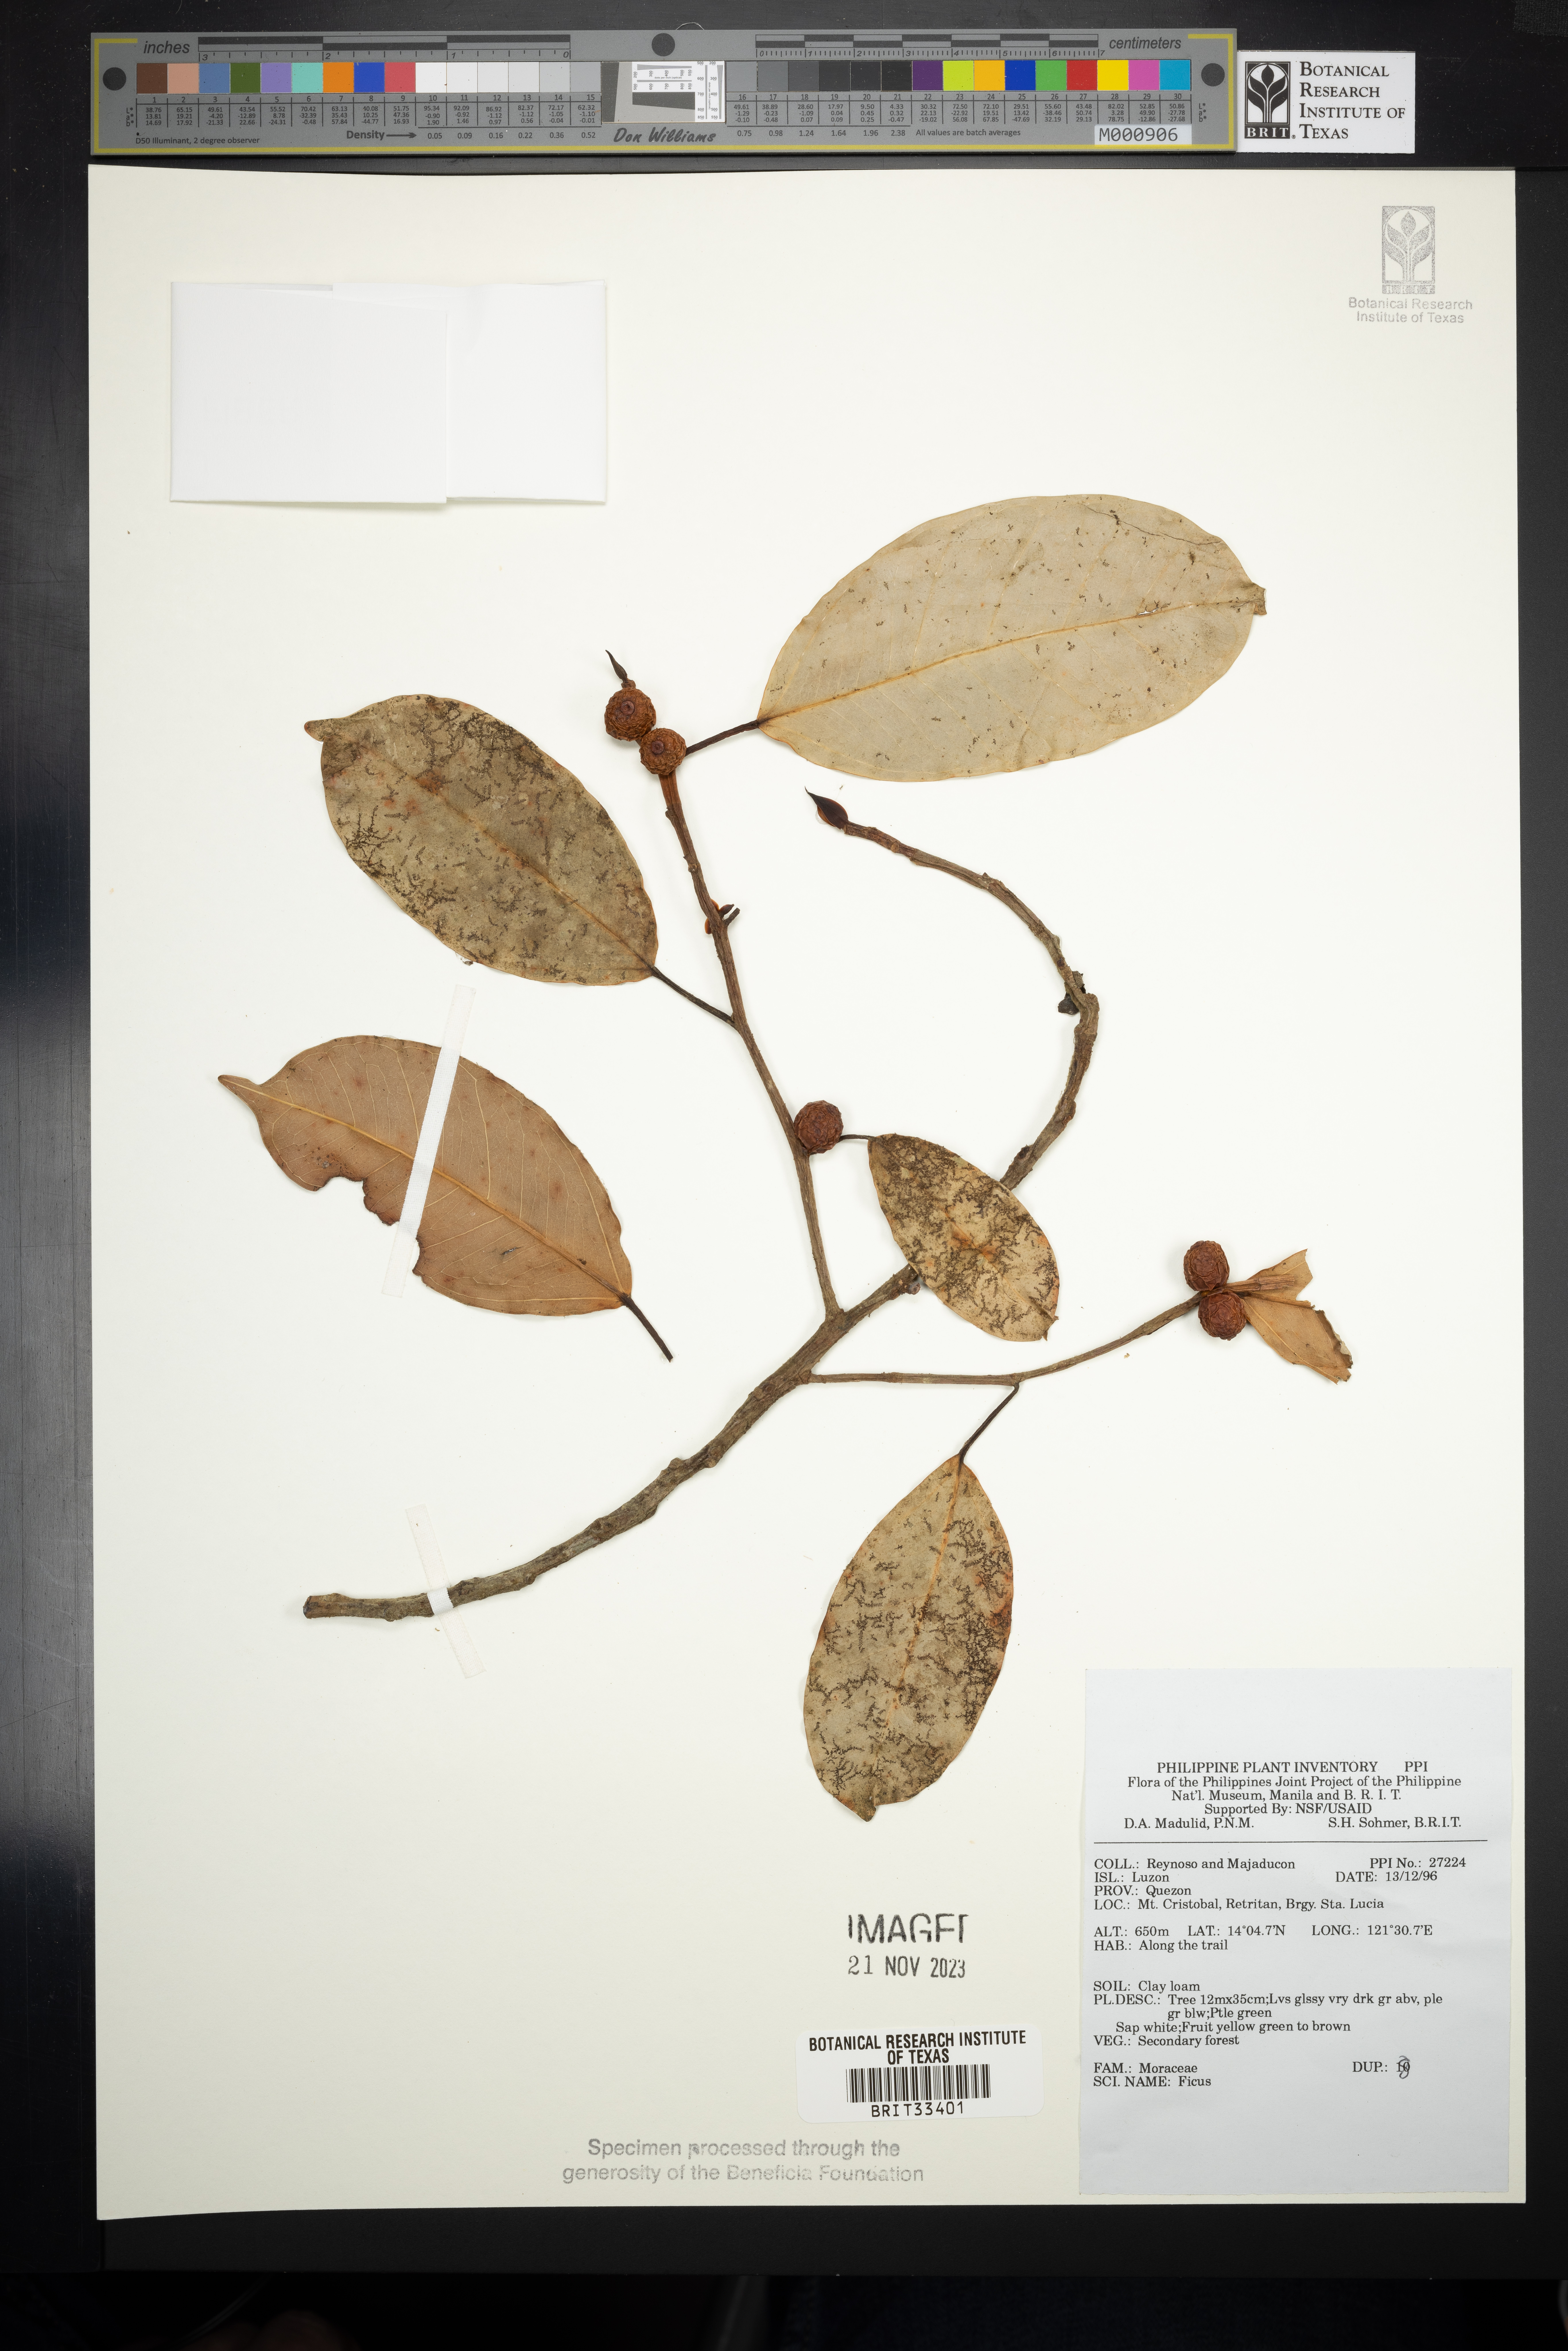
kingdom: Plantae
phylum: Tracheophyta
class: Magnoliopsida
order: Rosales
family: Moraceae
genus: Ficus
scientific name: Ficus
